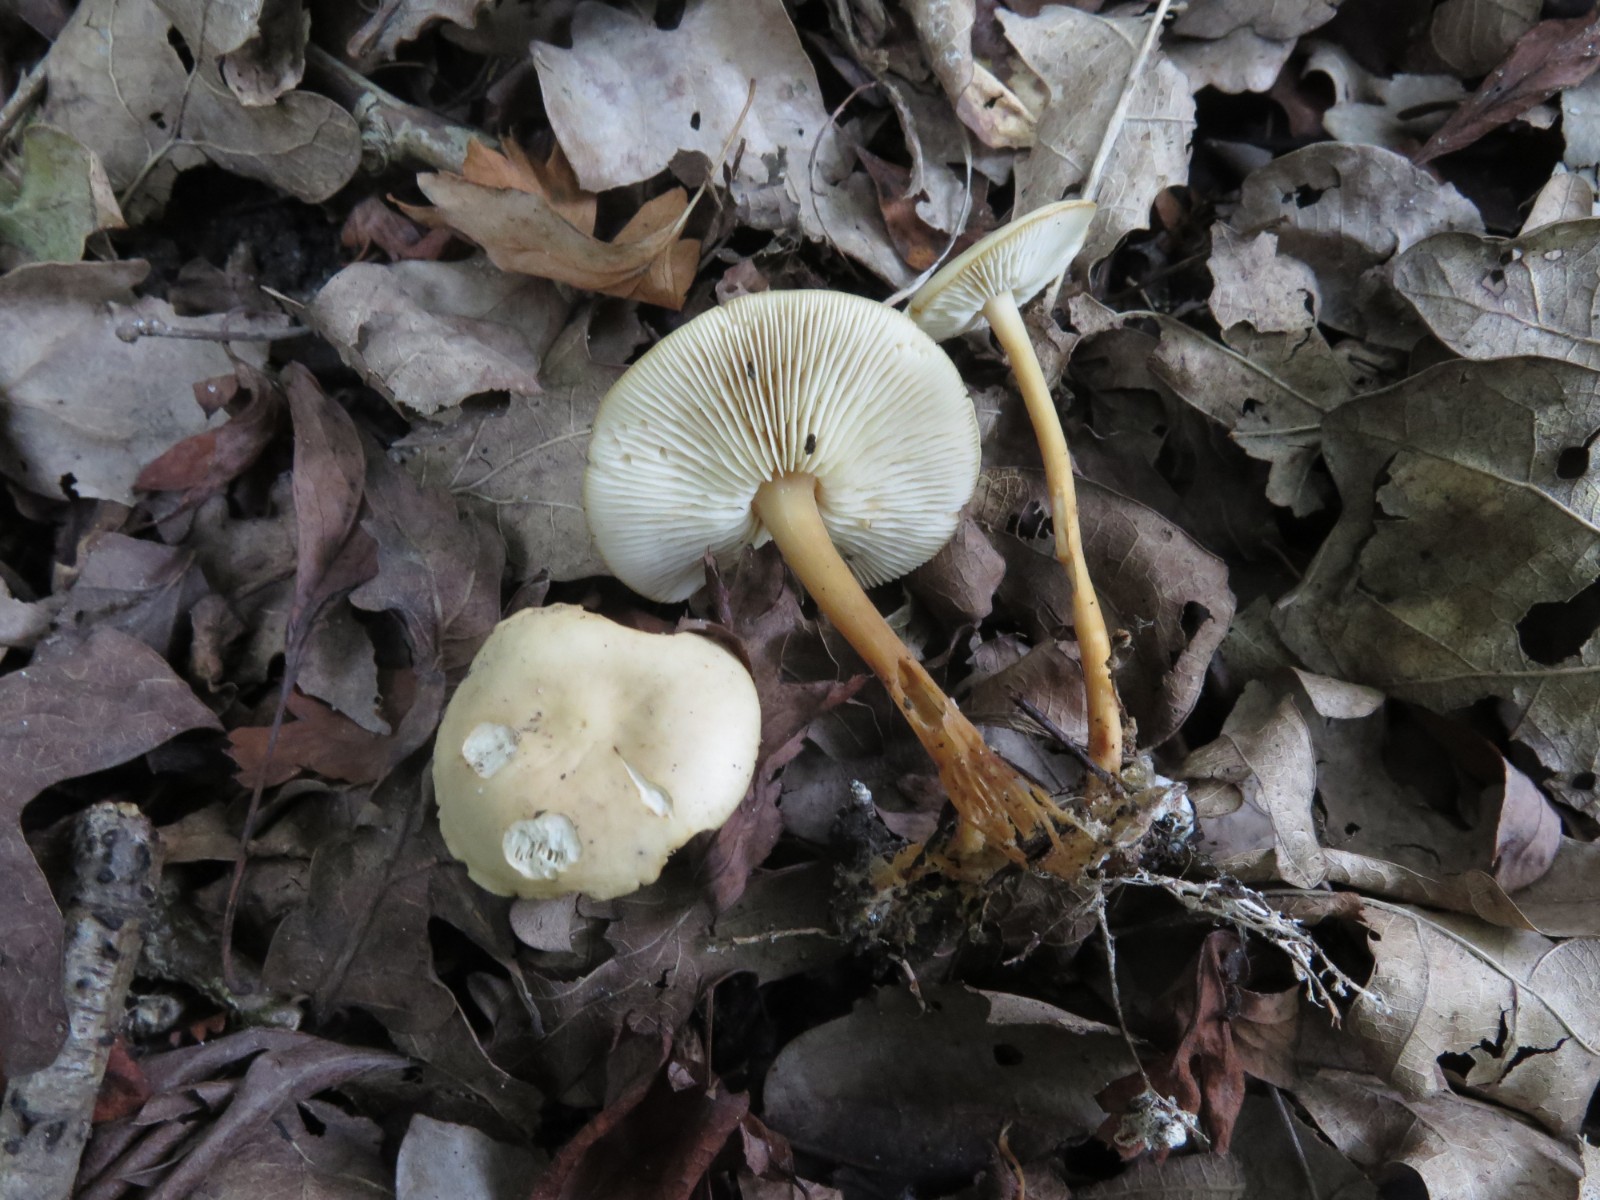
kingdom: Fungi
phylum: Basidiomycota
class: Agaricomycetes
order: Agaricales
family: Omphalotaceae
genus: Gymnopus
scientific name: Gymnopus aquosus
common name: bleg fladhat
